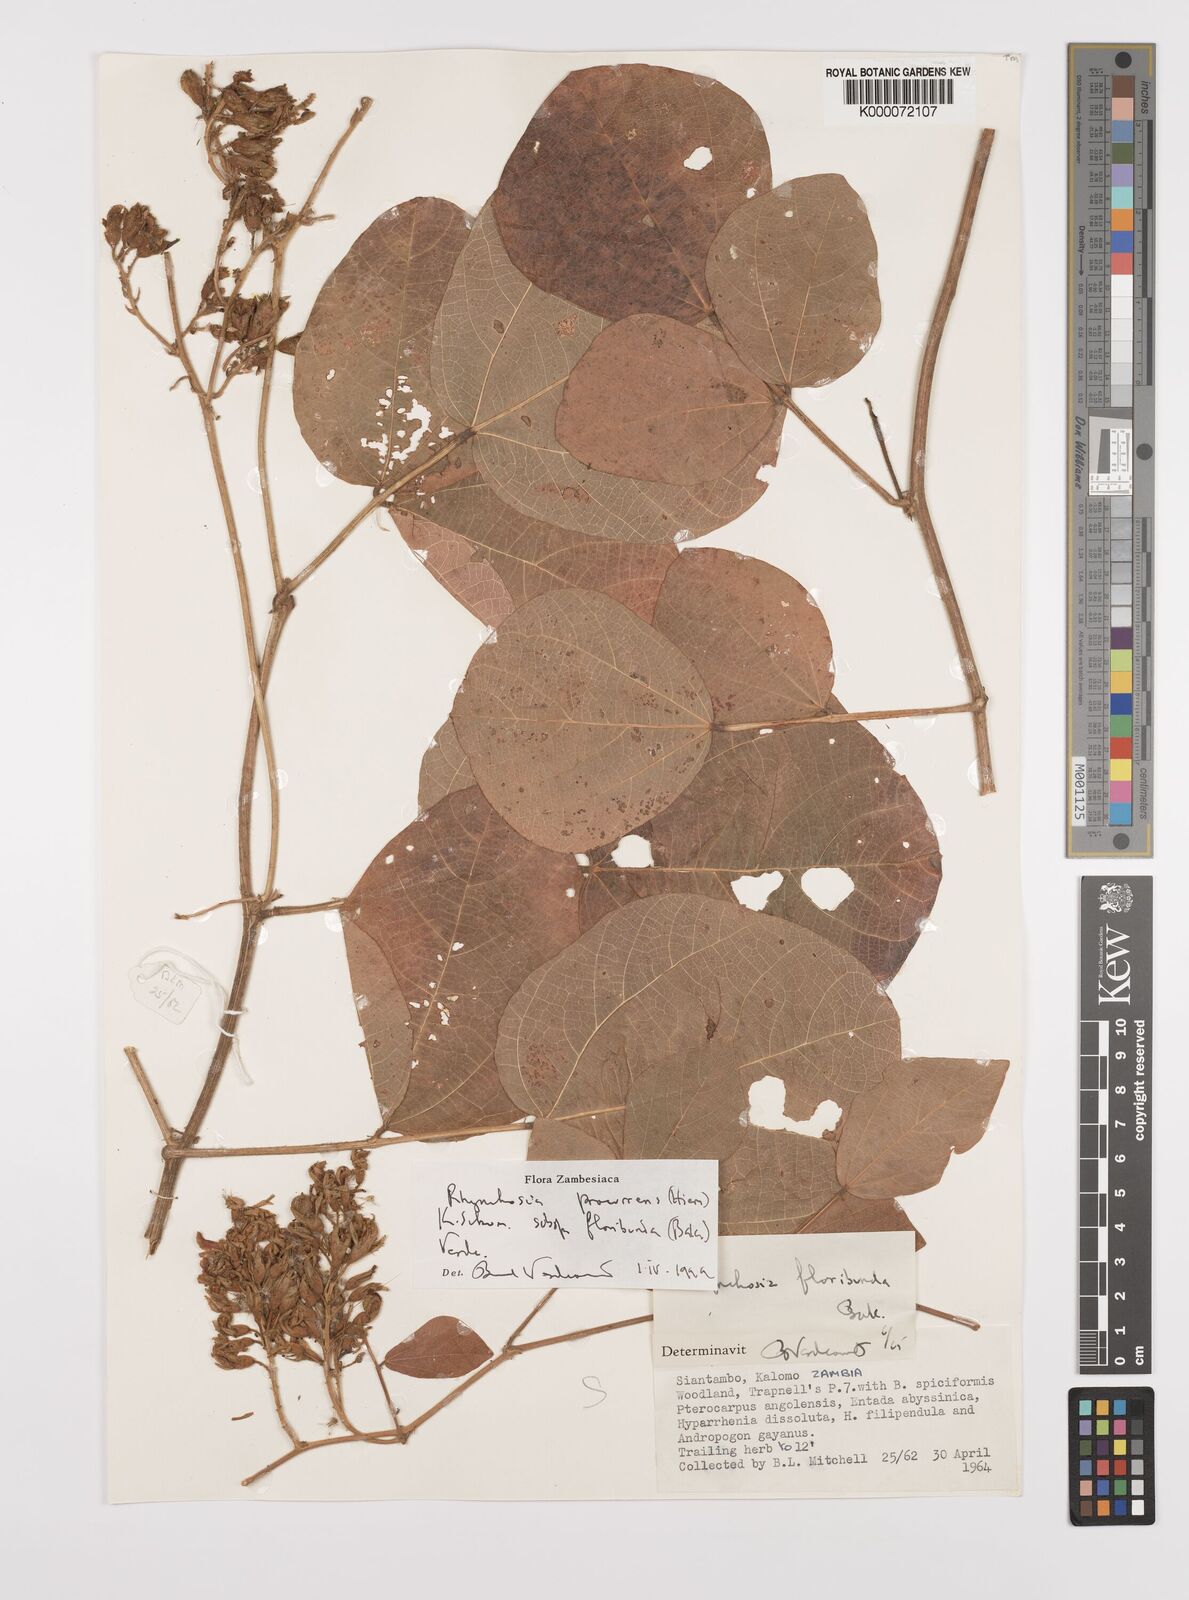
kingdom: Plantae
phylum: Tracheophyta
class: Magnoliopsida
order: Fabales
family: Fabaceae
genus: Rhynchosia
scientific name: Rhynchosia procurrens
